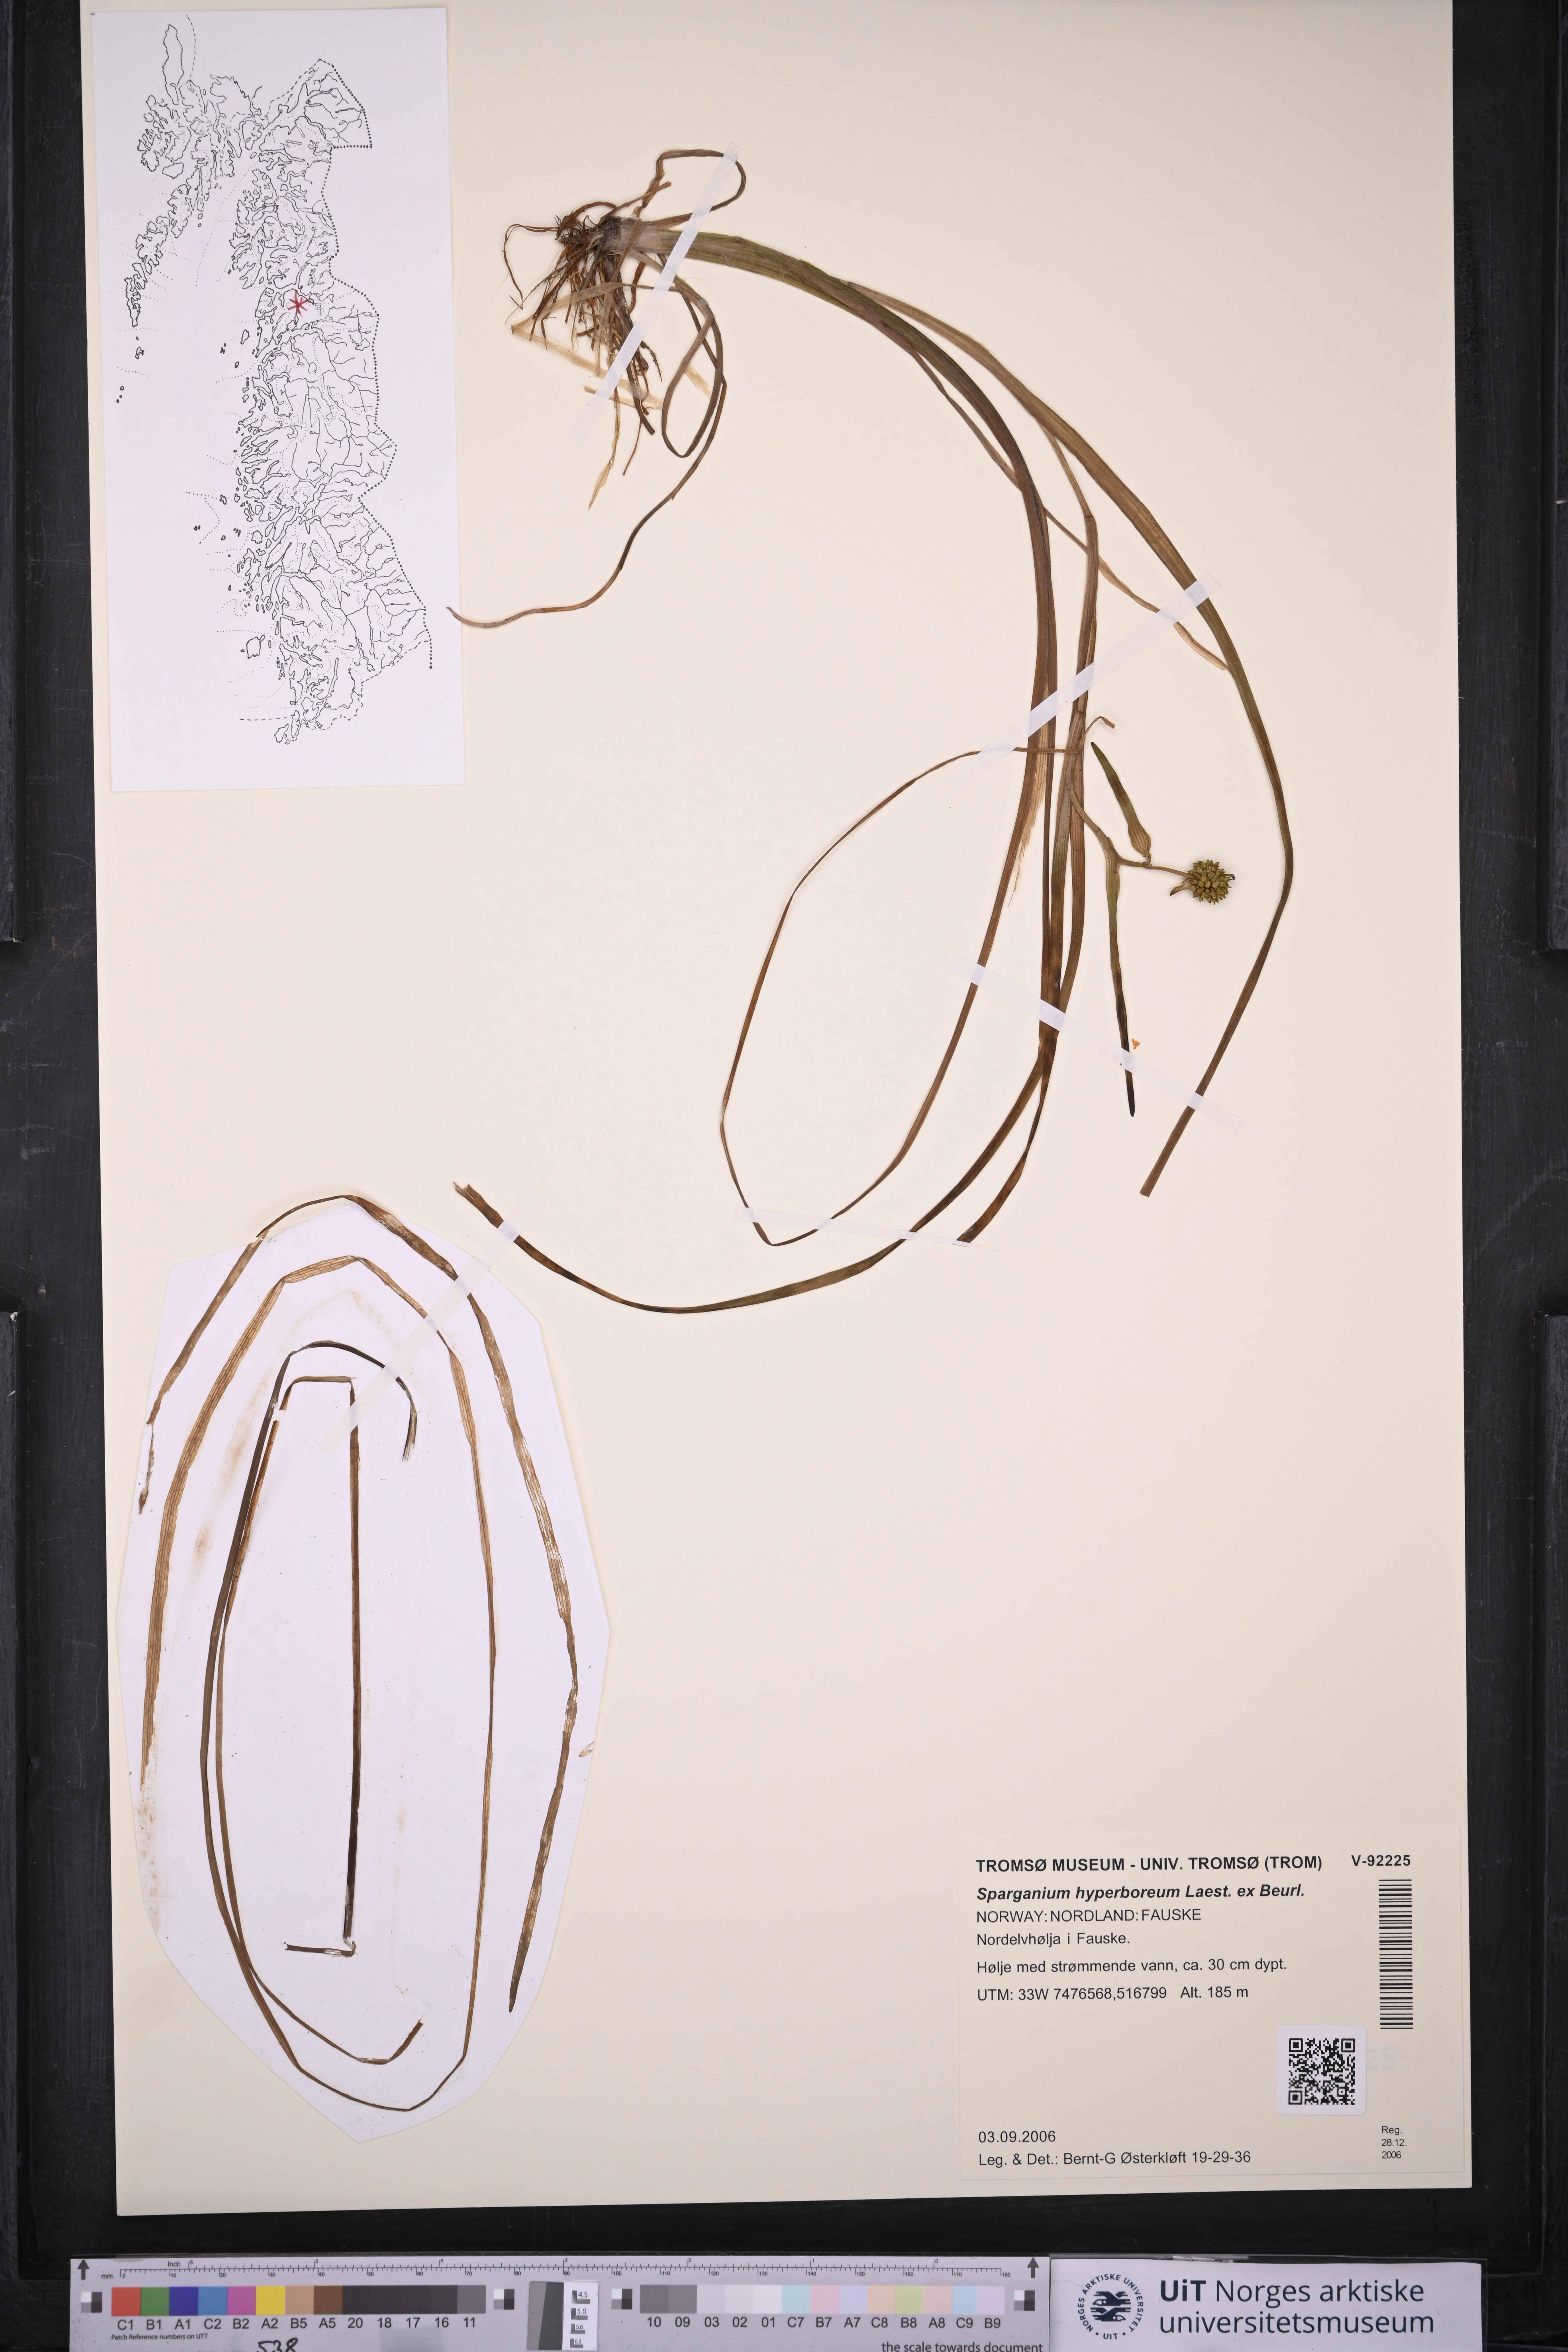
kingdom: Plantae
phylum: Tracheophyta
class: Liliopsida
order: Poales
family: Typhaceae
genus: Sparganium
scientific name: Sparganium hyperboreum
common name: Arctic burreed
